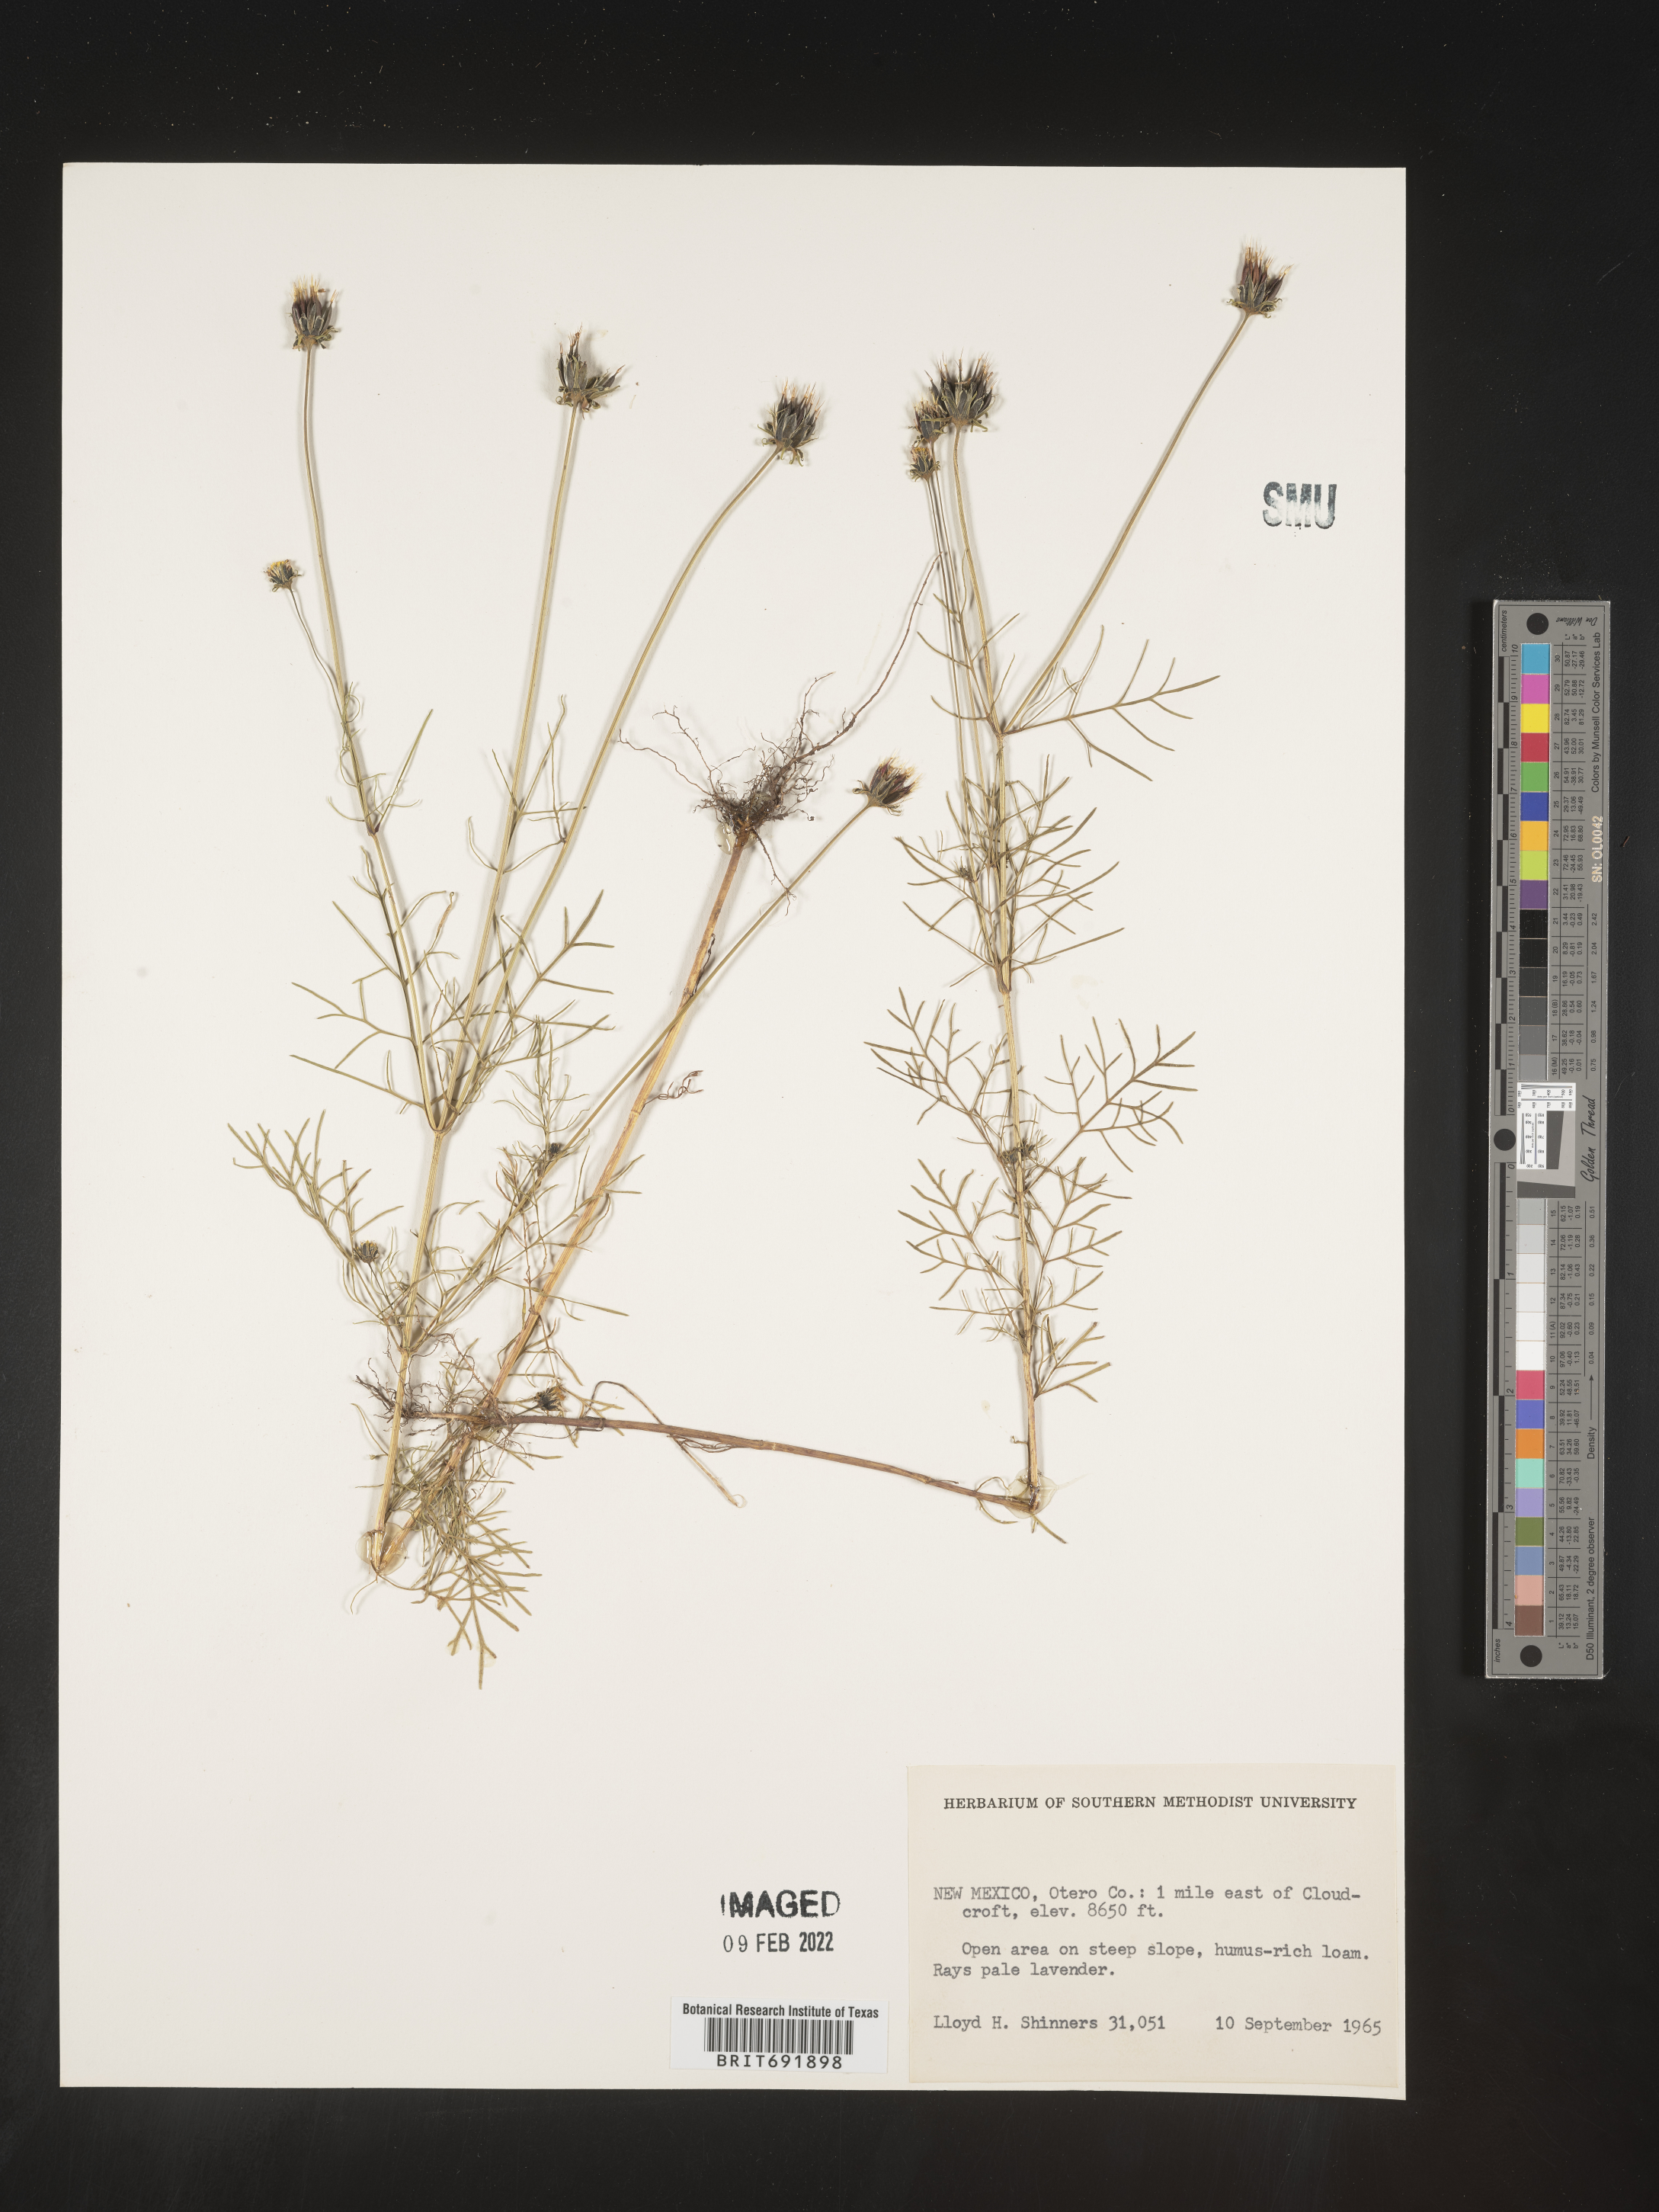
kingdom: Plantae
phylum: Tracheophyta
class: Magnoliopsida
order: Asterales
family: Asteraceae
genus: Cosmos
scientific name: Cosmos
